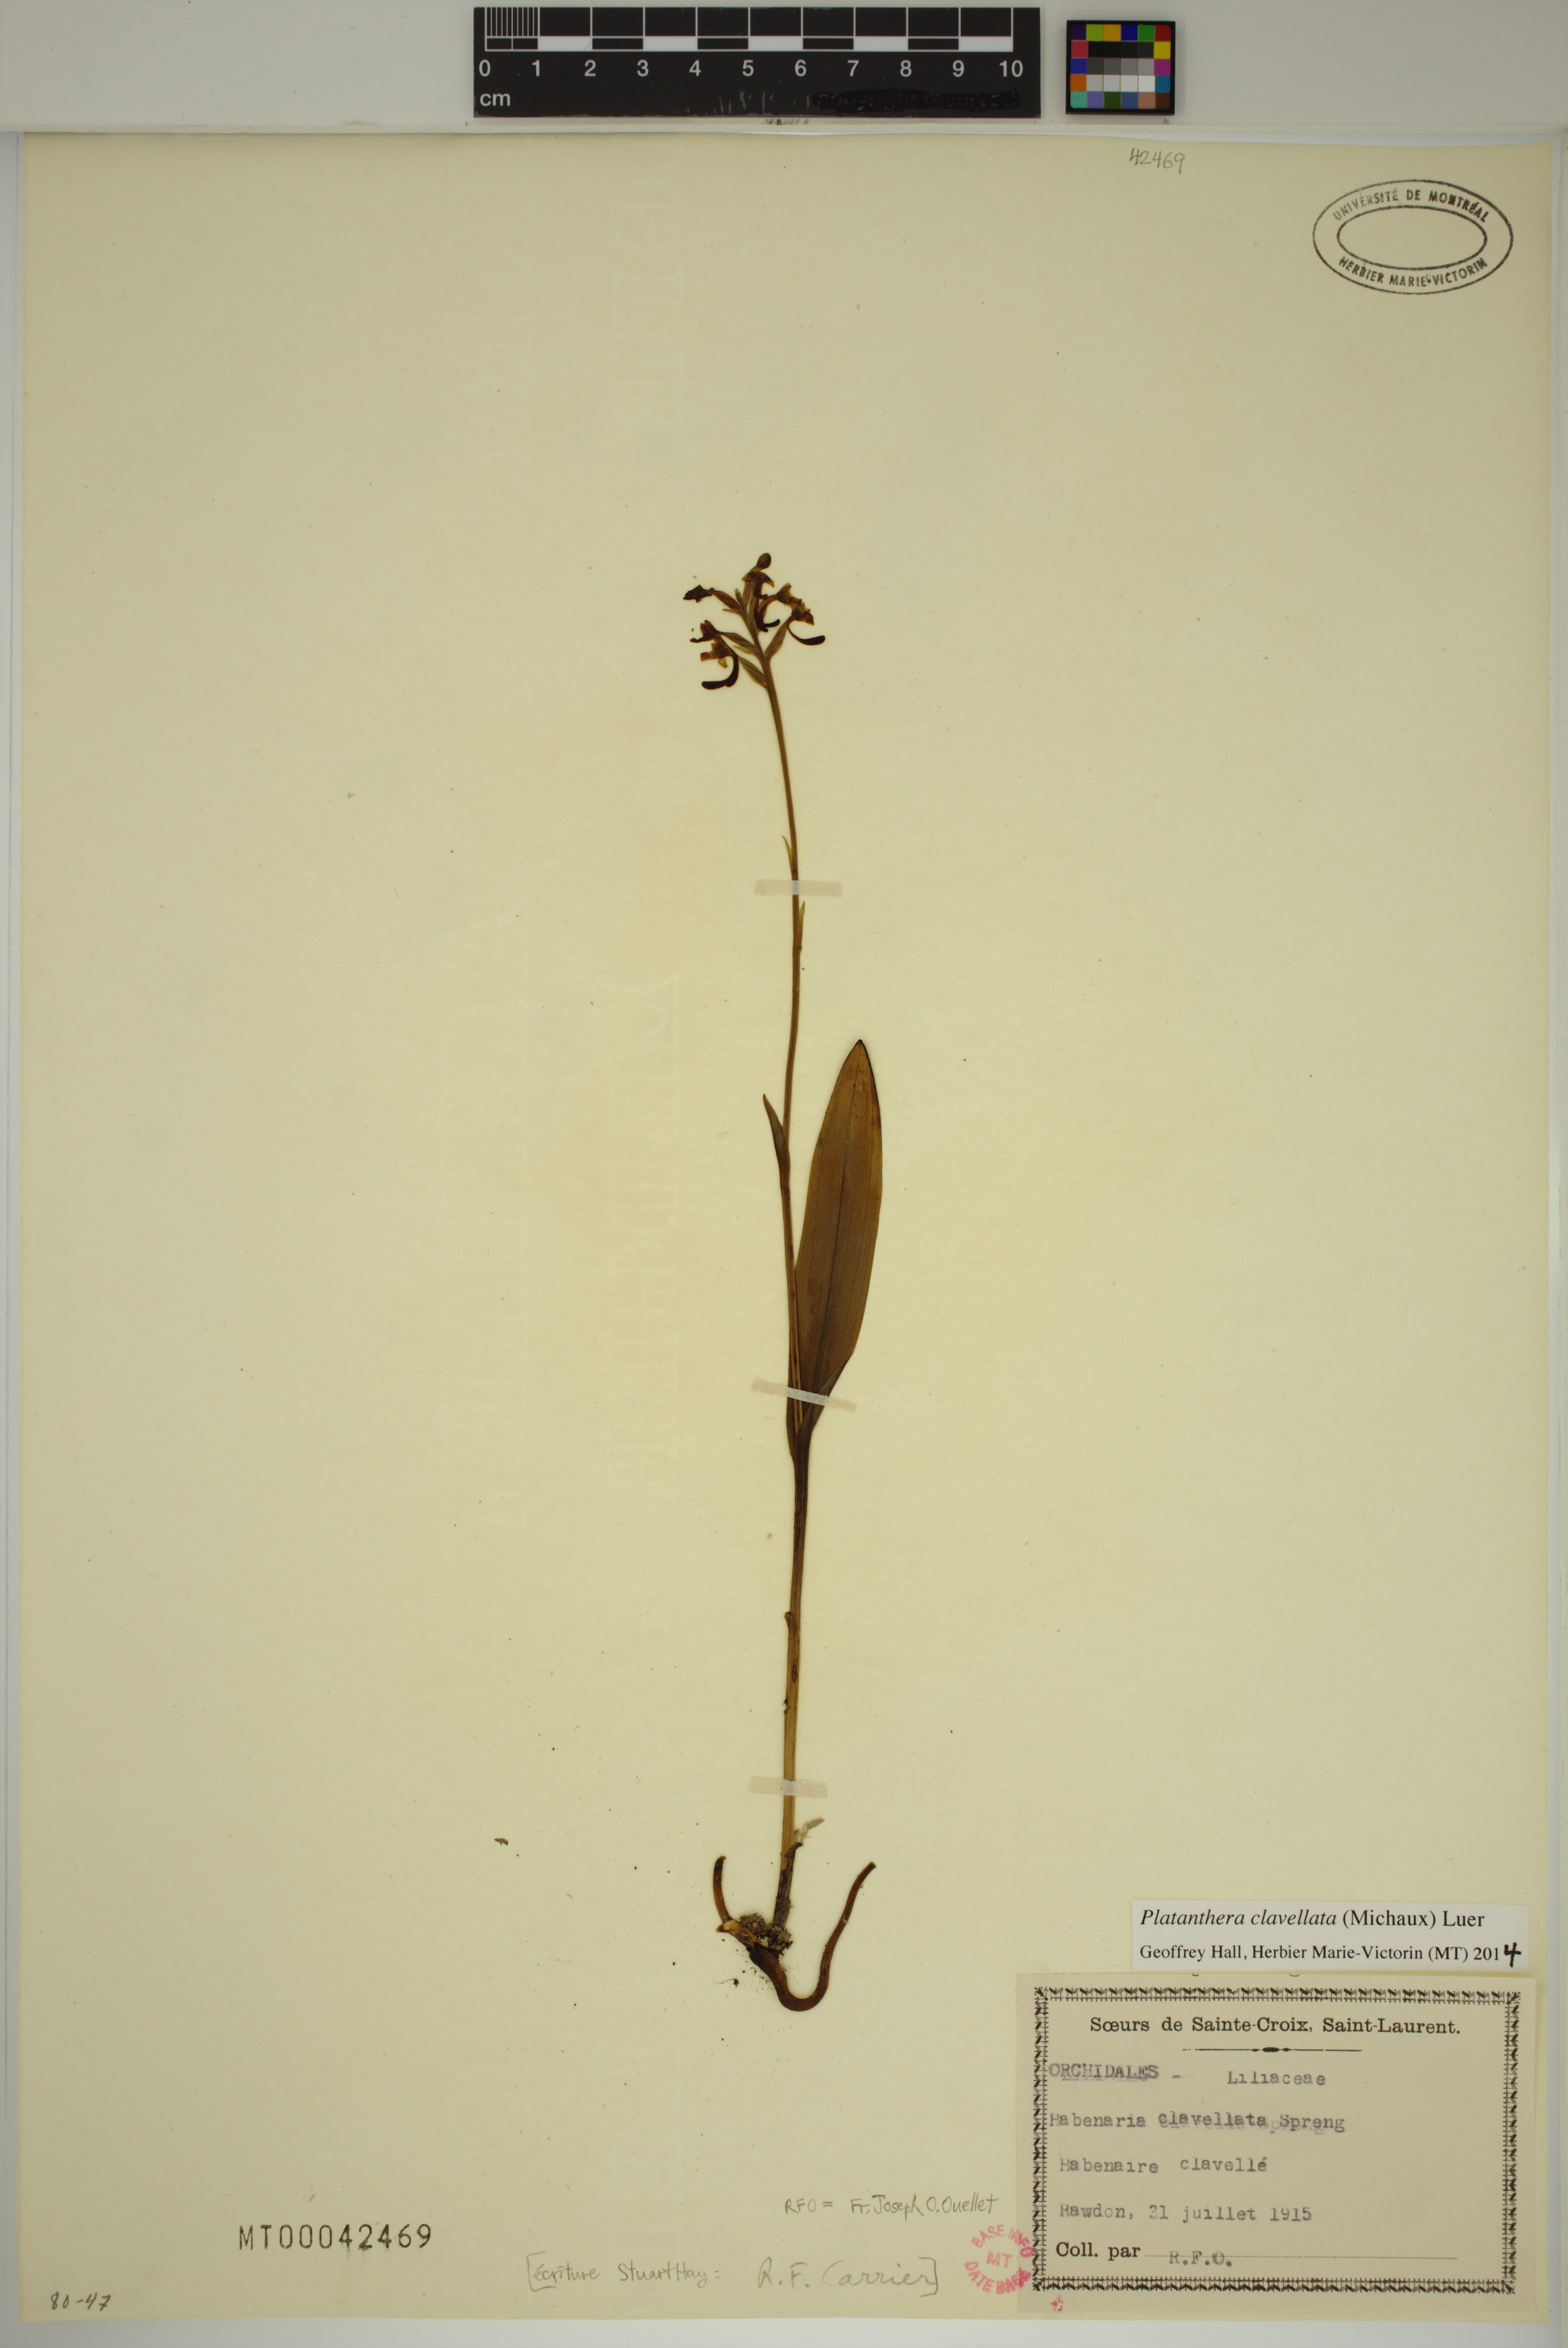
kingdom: Plantae
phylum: Tracheophyta
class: Liliopsida
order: Asparagales
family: Orchidaceae
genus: Platanthera
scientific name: Platanthera clavellata
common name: Club-spur orchid
